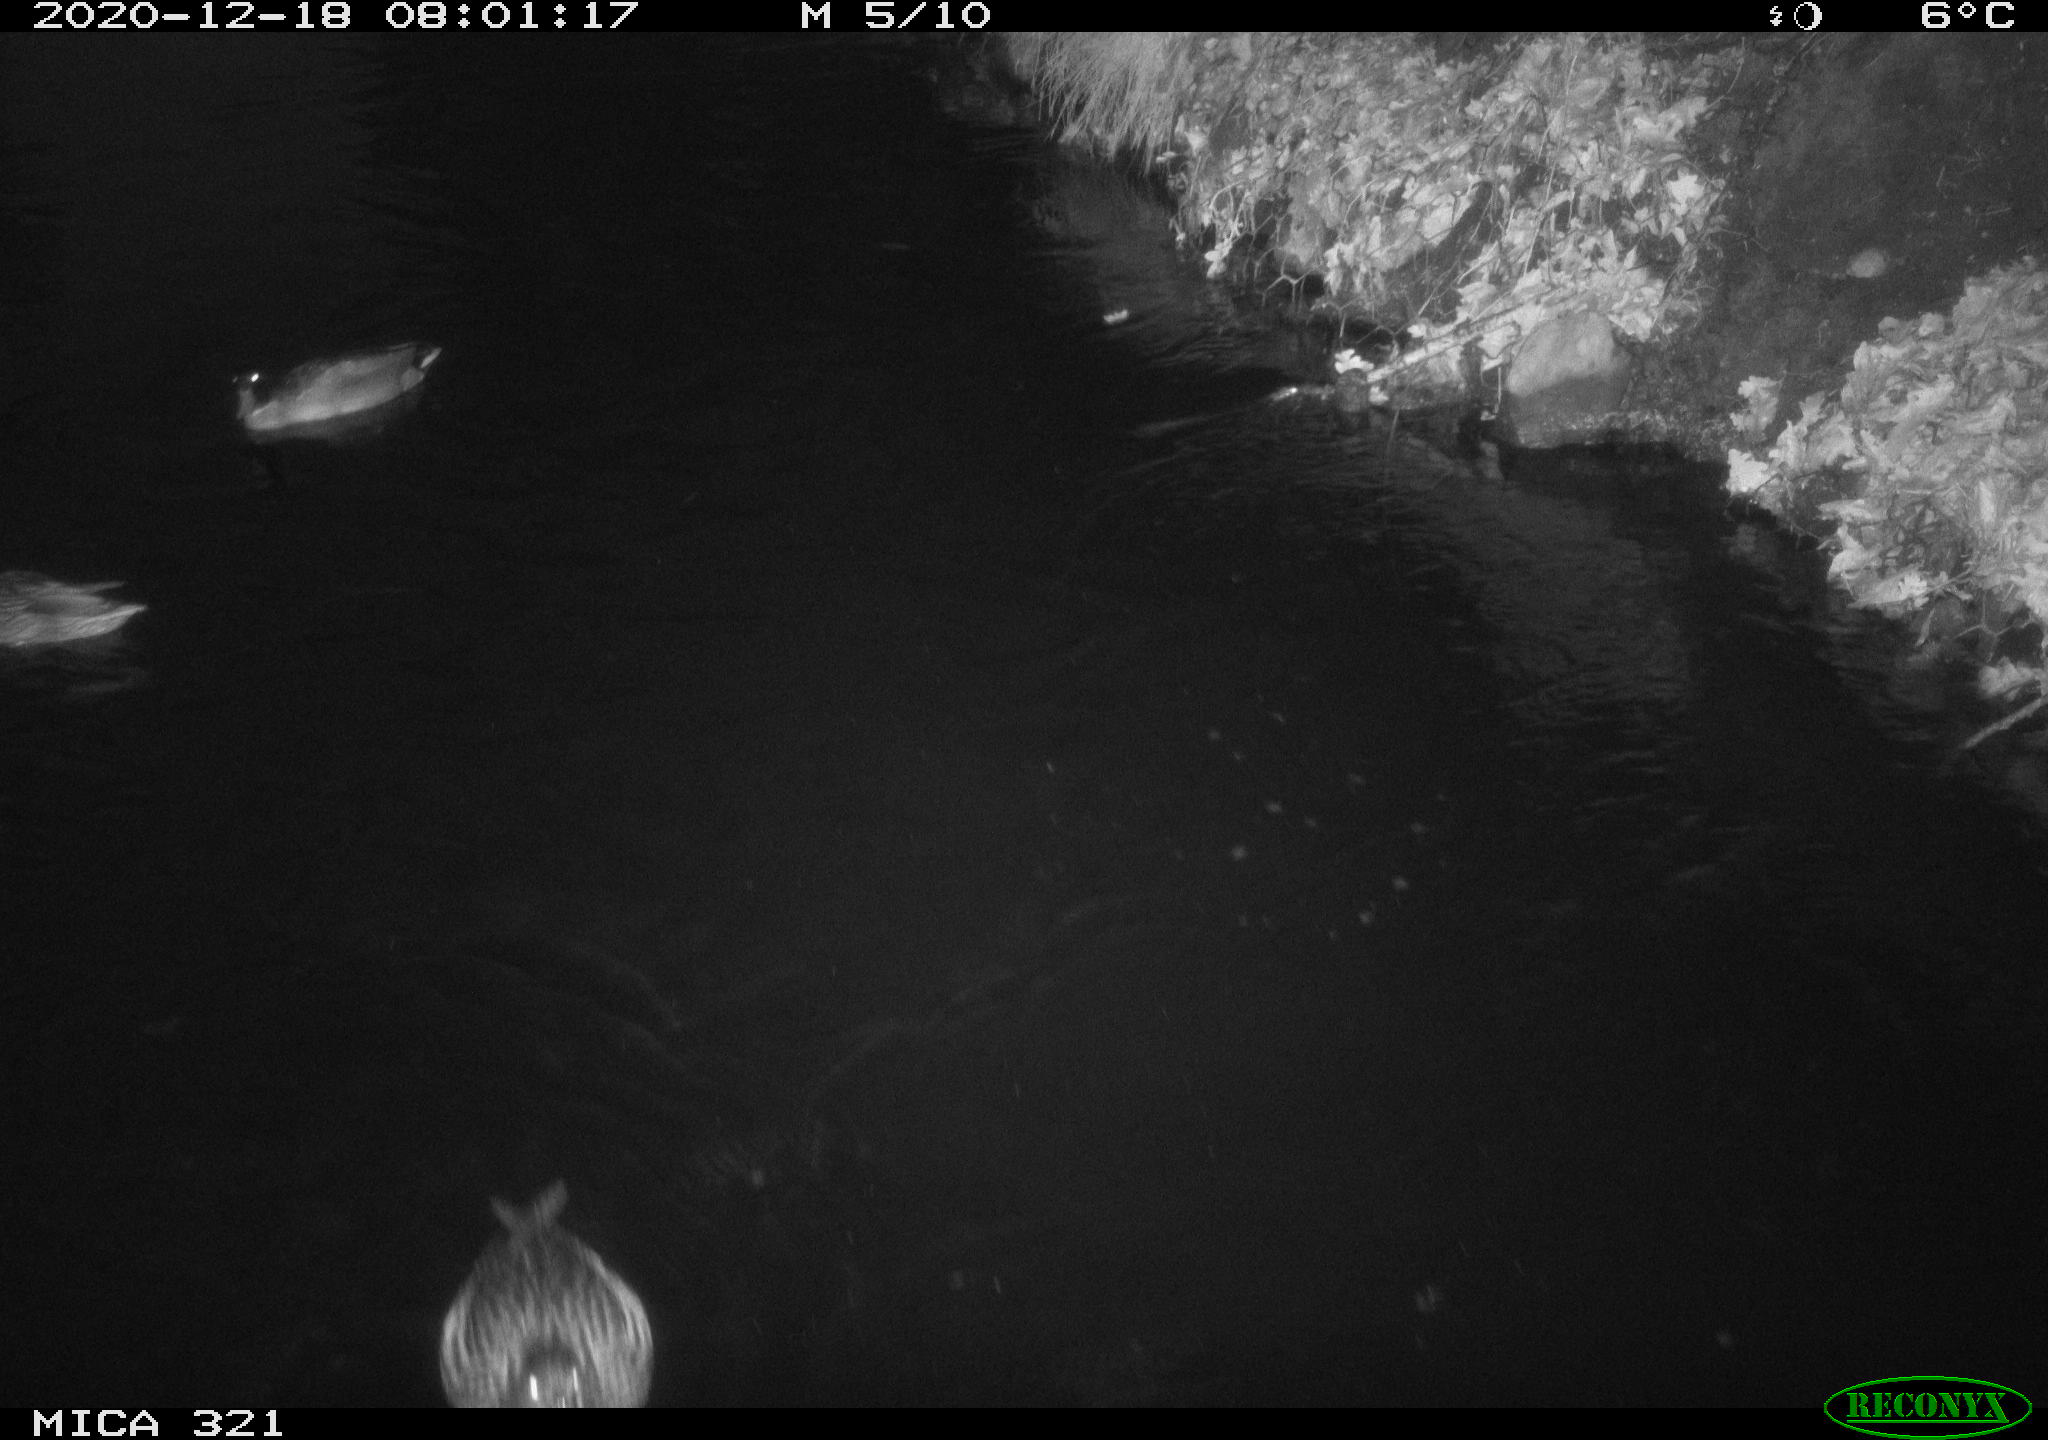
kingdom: Animalia
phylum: Chordata
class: Aves
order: Anseriformes
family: Anatidae
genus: Anas
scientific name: Anas platyrhynchos
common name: Mallard
